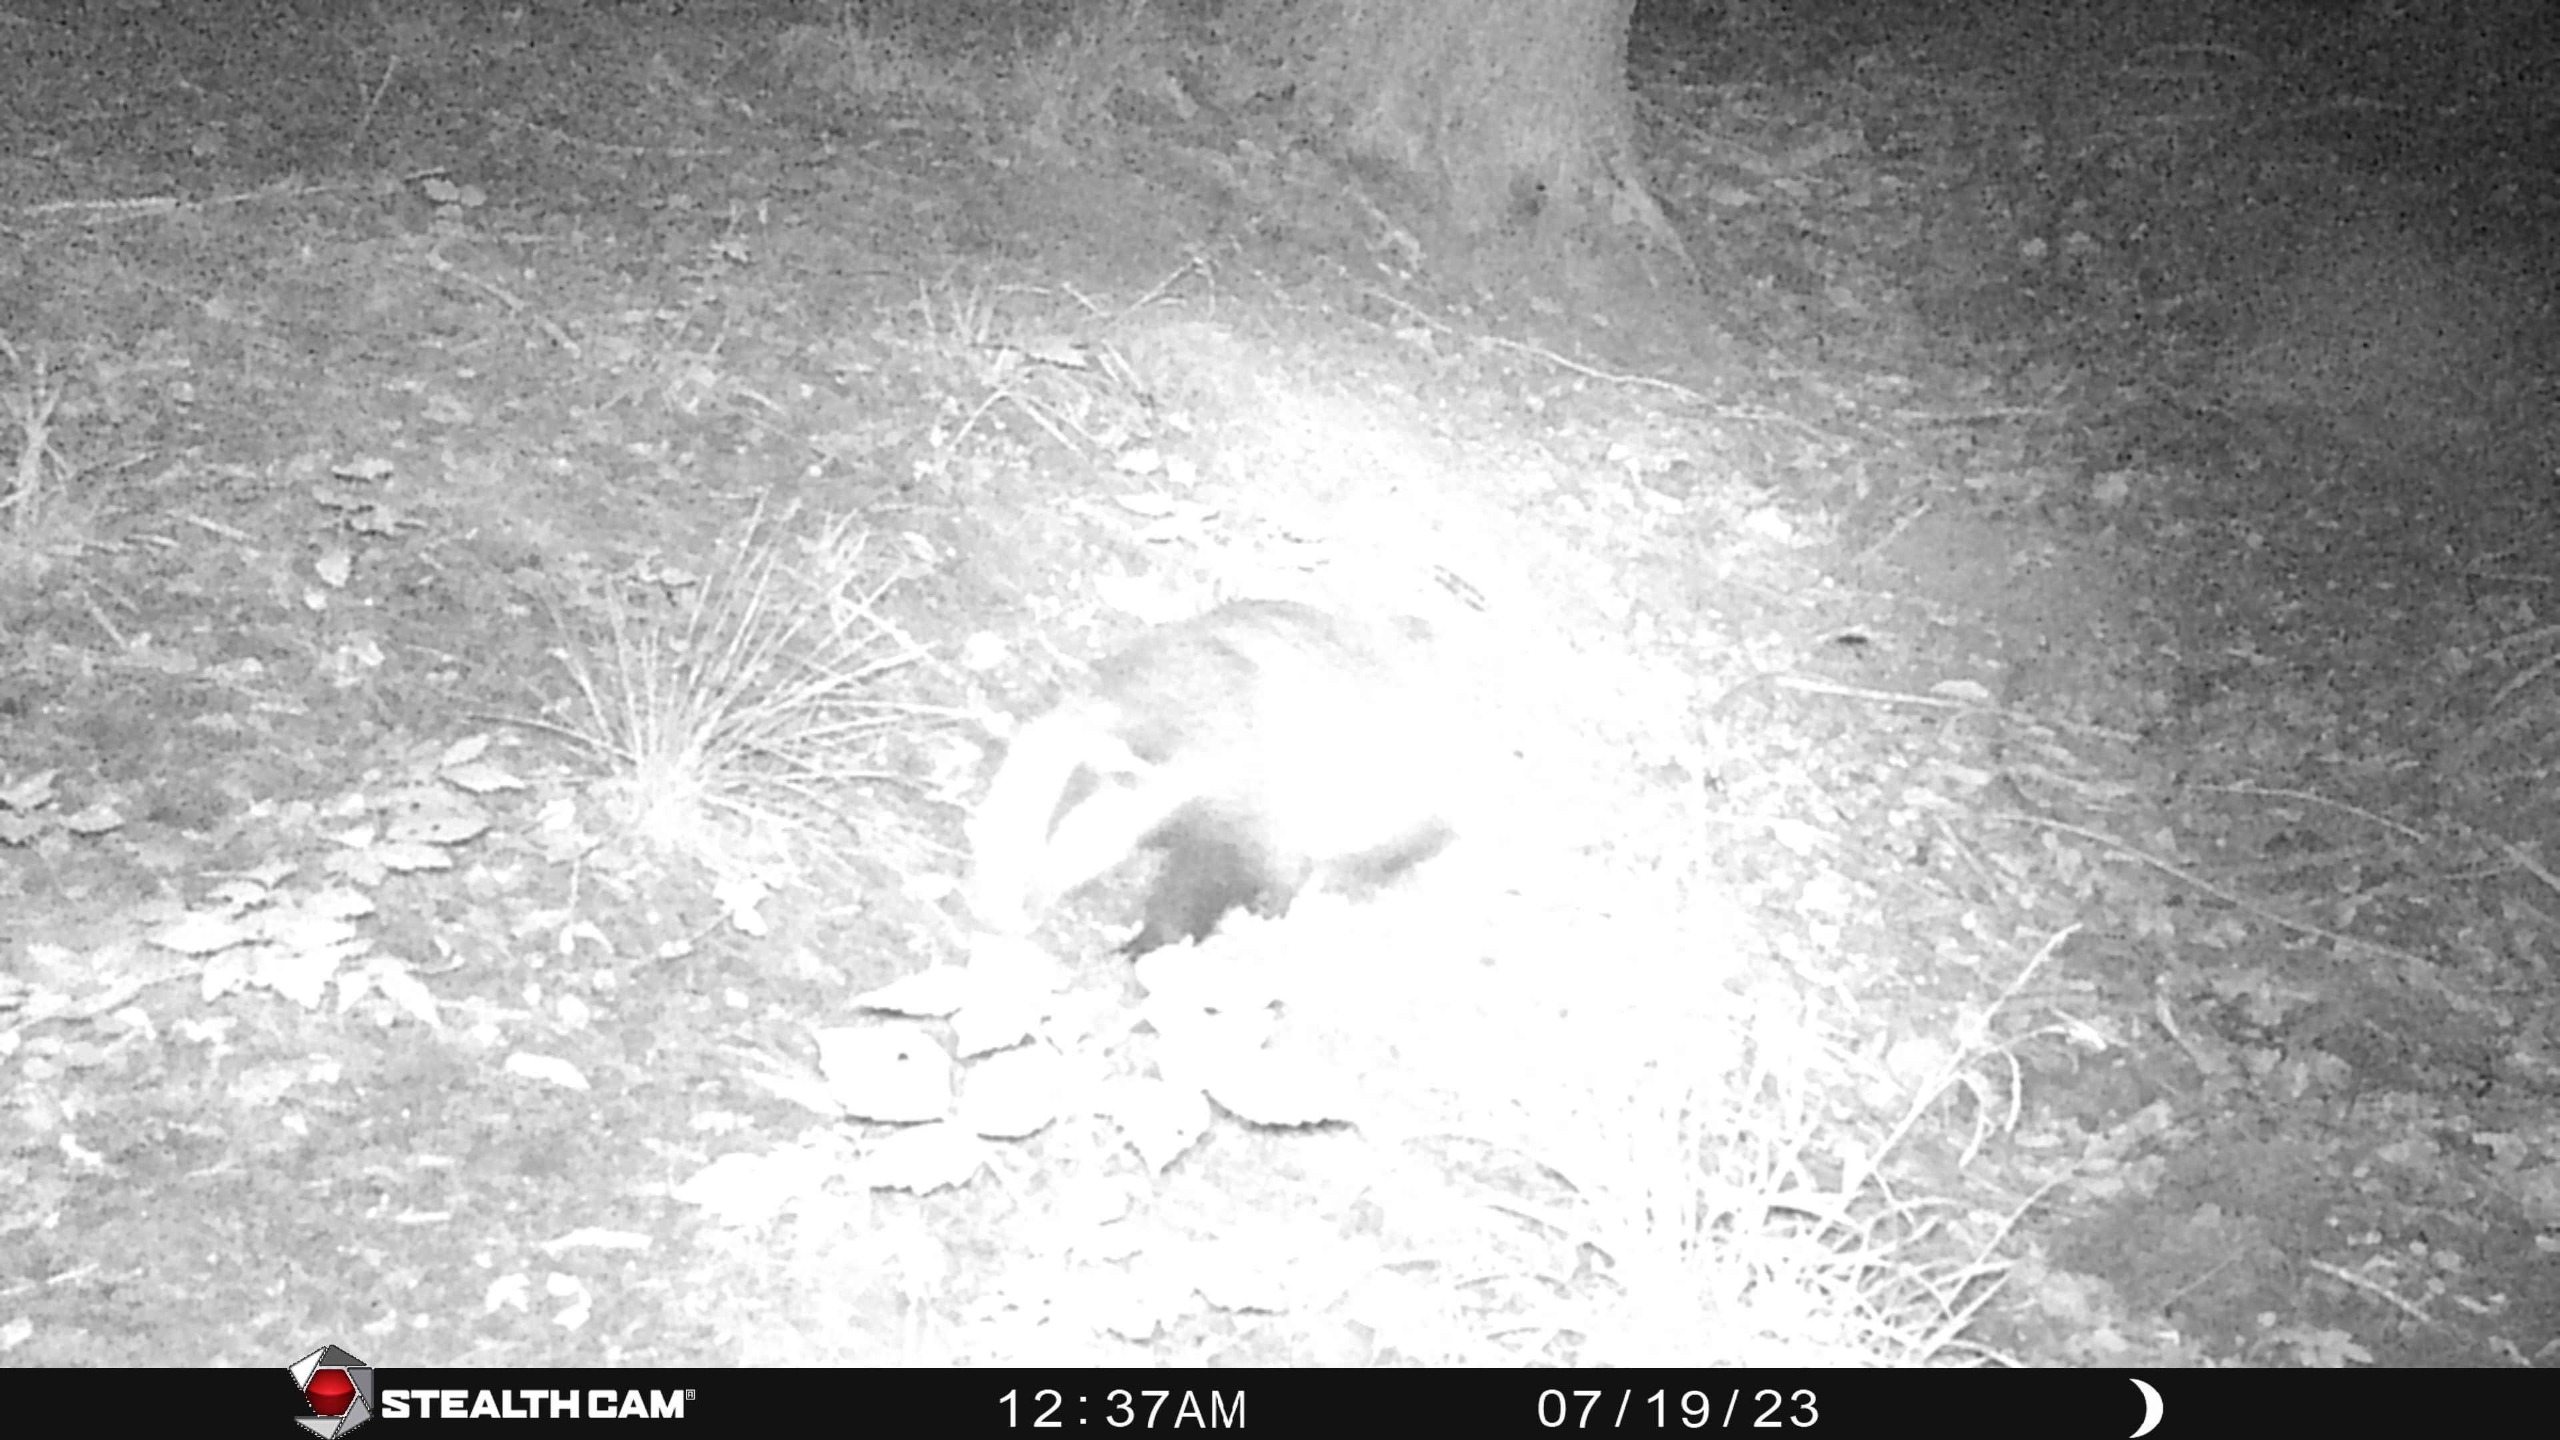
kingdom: Animalia
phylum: Chordata
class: Mammalia
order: Carnivora
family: Mustelidae
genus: Meles
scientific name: Meles meles
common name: Grævling
